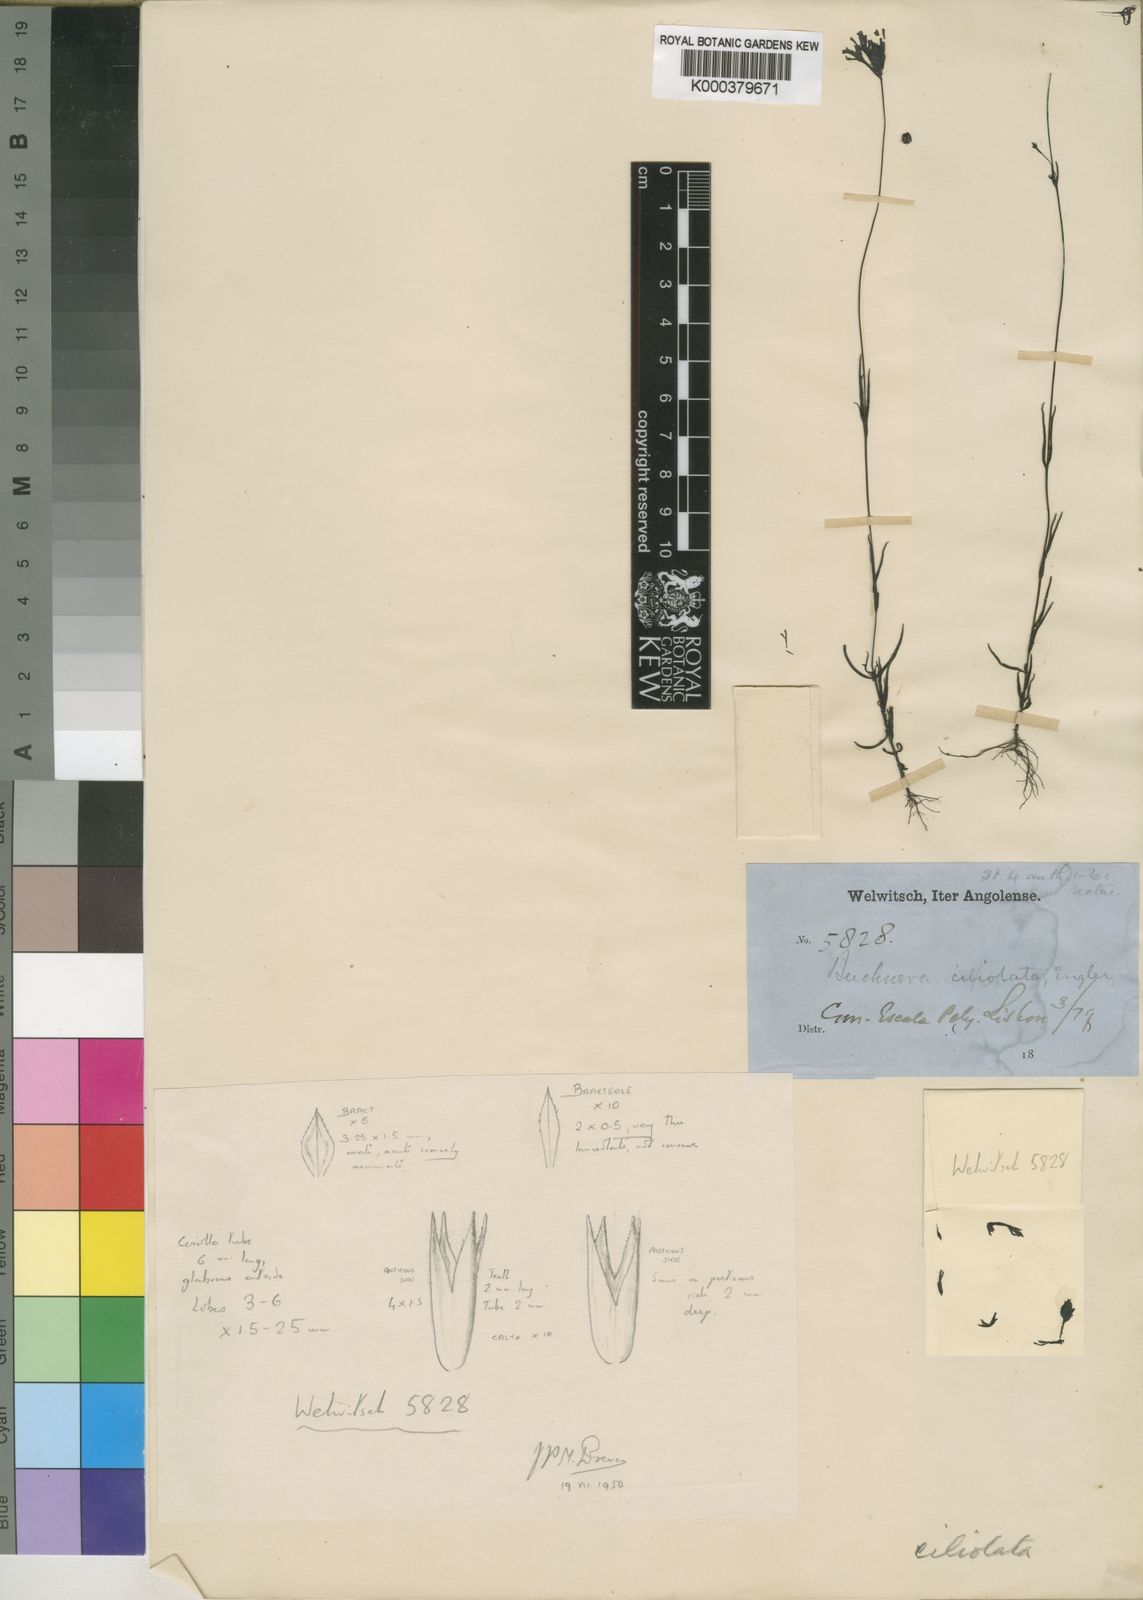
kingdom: Plantae
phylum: Tracheophyta
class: Magnoliopsida
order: Lamiales
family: Orobanchaceae
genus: Buchnera
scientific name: Buchnera ciliolata
